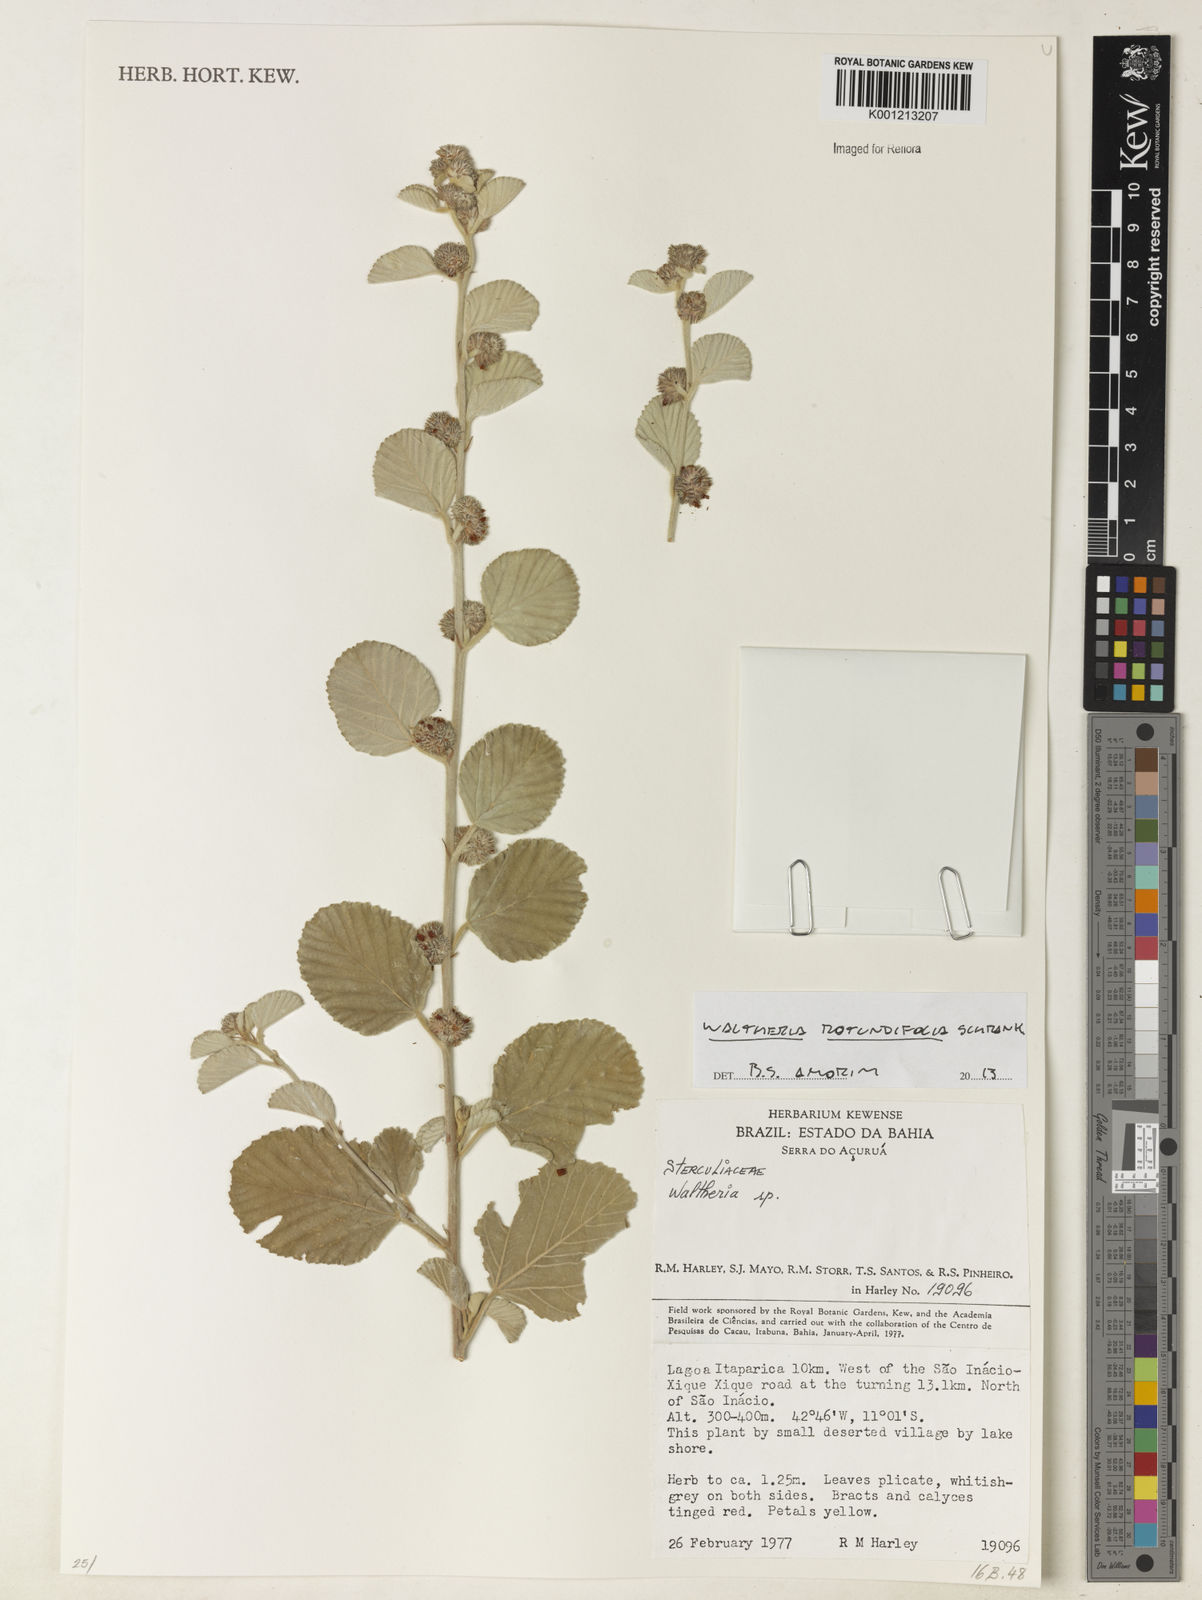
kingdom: Plantae
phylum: Tracheophyta
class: Magnoliopsida
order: Malvales
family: Malvaceae
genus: Waltheria
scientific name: Waltheria rotundifolia
